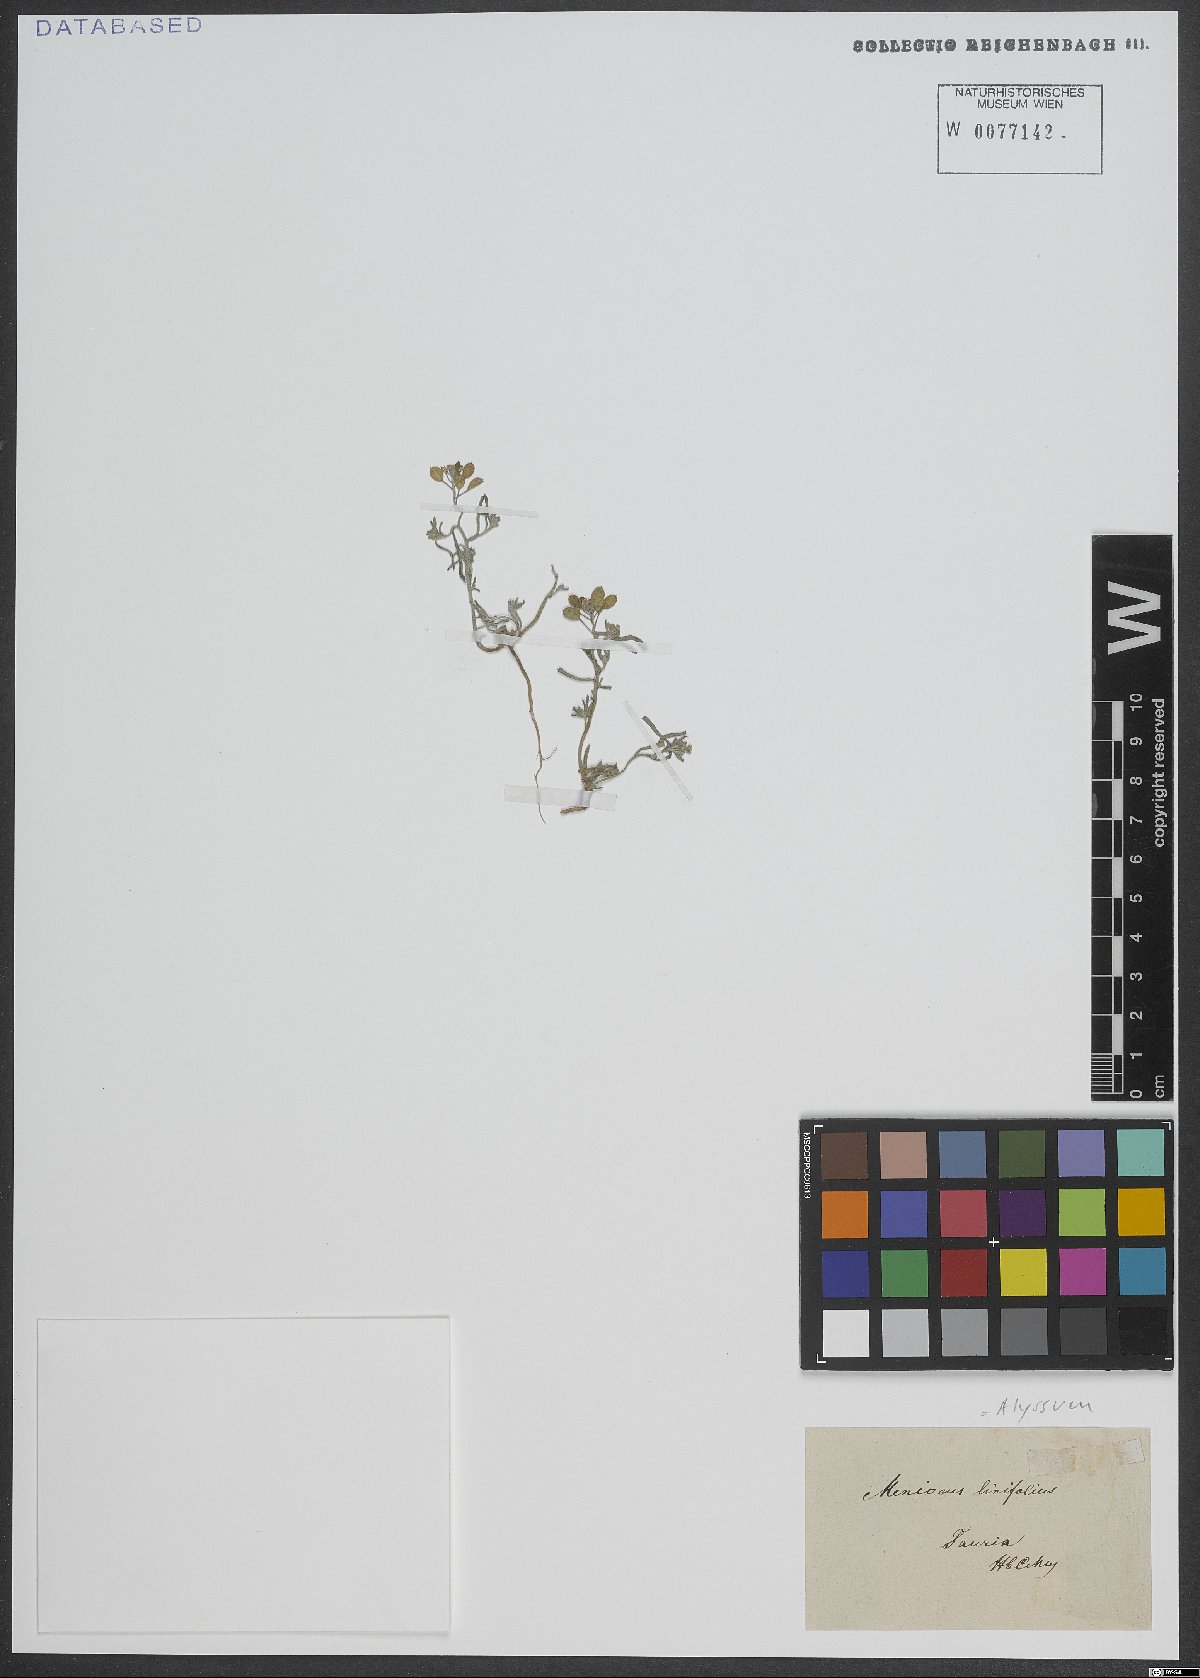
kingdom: Plantae
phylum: Tracheophyta
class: Magnoliopsida
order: Brassicales
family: Brassicaceae
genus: Meniocus
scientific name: Meniocus linifolius
